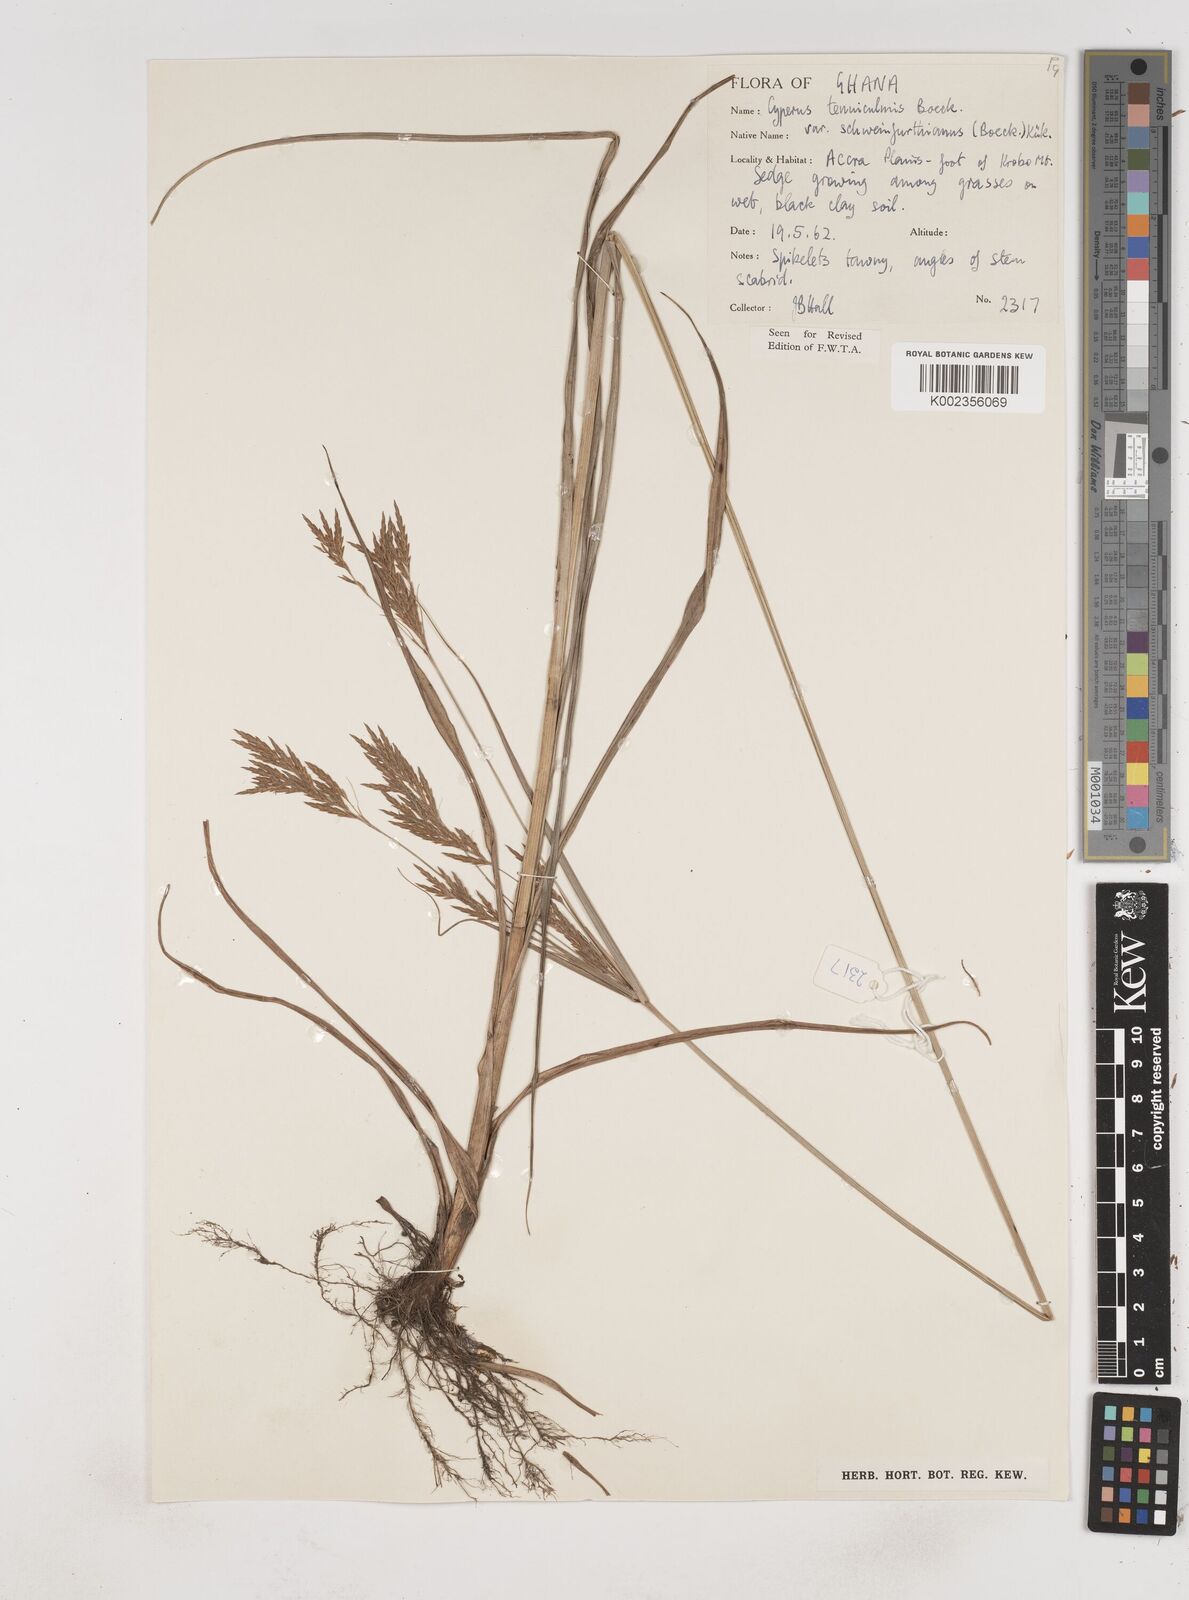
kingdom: Plantae
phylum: Tracheophyta
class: Liliopsida
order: Poales
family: Cyperaceae
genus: Cyperus
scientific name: Cyperus tenuiculmis
